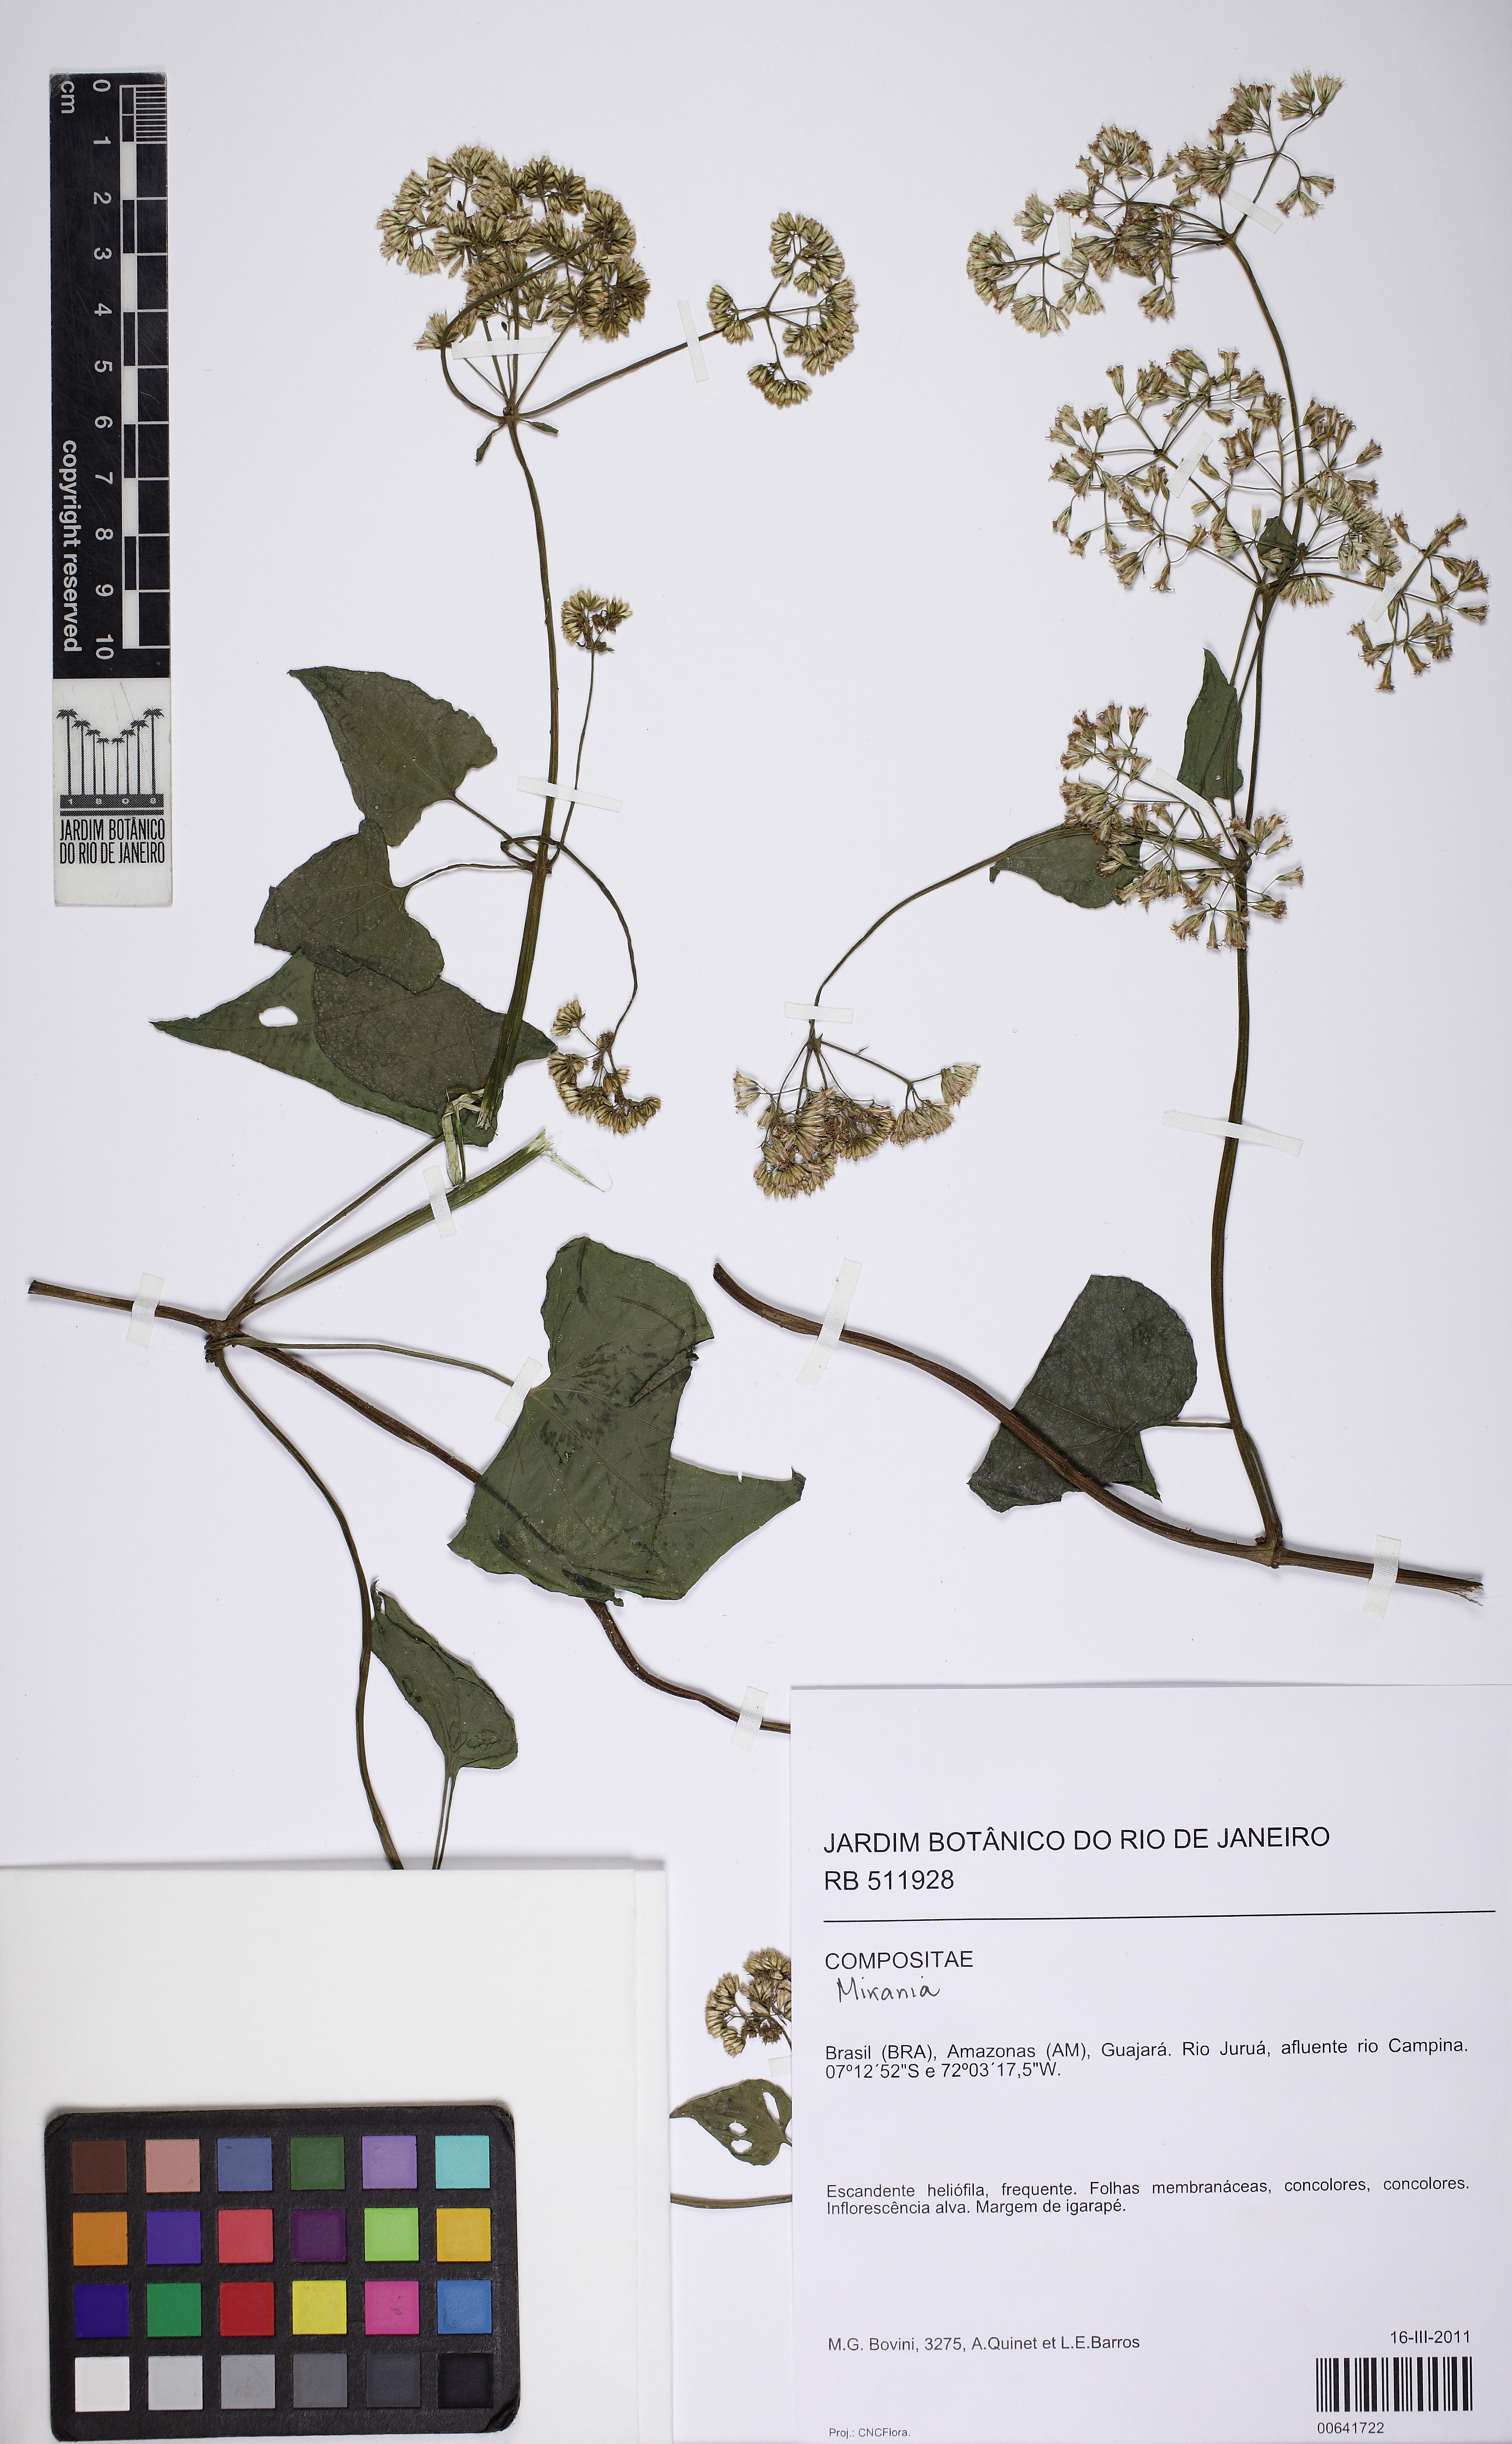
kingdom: Plantae
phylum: Tracheophyta
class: Magnoliopsida
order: Asterales
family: Asteraceae
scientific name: Asteraceae
